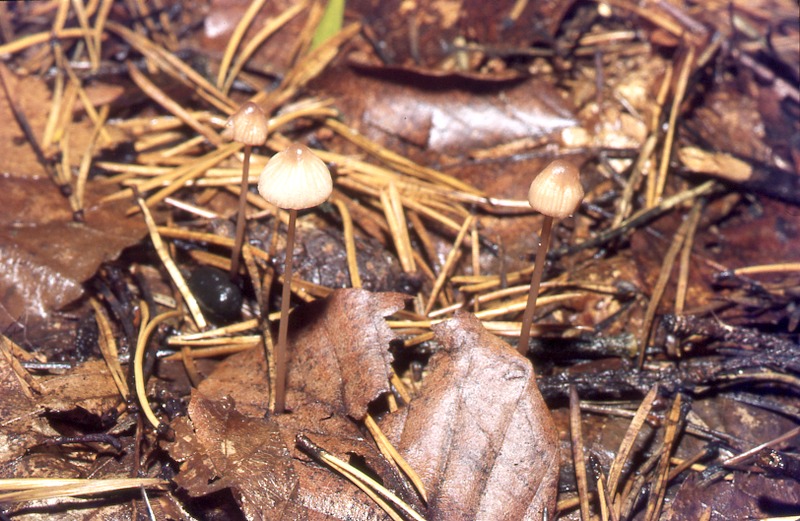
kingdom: Fungi
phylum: Basidiomycota
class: Agaricomycetes
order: Agaricales
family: Mycenaceae
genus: Mycena
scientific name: Mycena sanguinolenta
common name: Bleeding bonnet
